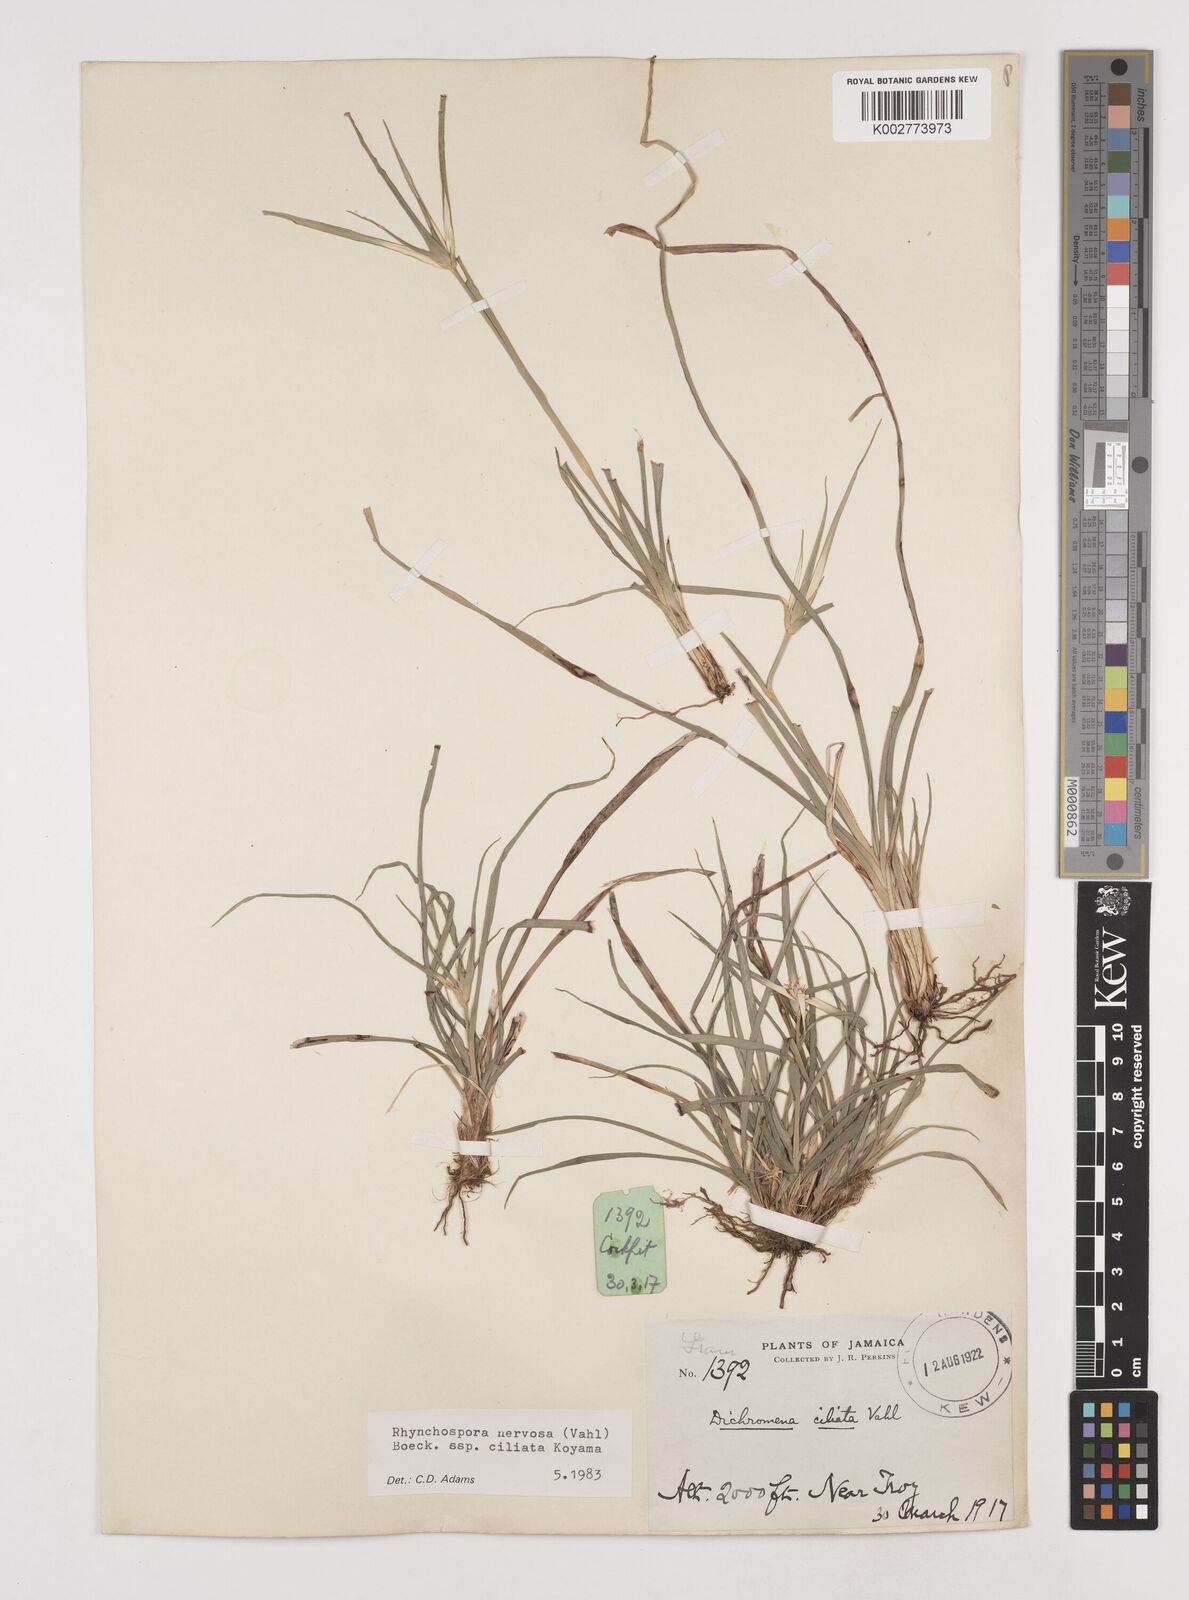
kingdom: Plantae
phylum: Tracheophyta
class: Liliopsida
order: Poales
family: Cyperaceae
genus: Rhynchospora
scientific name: Rhynchospora pura
